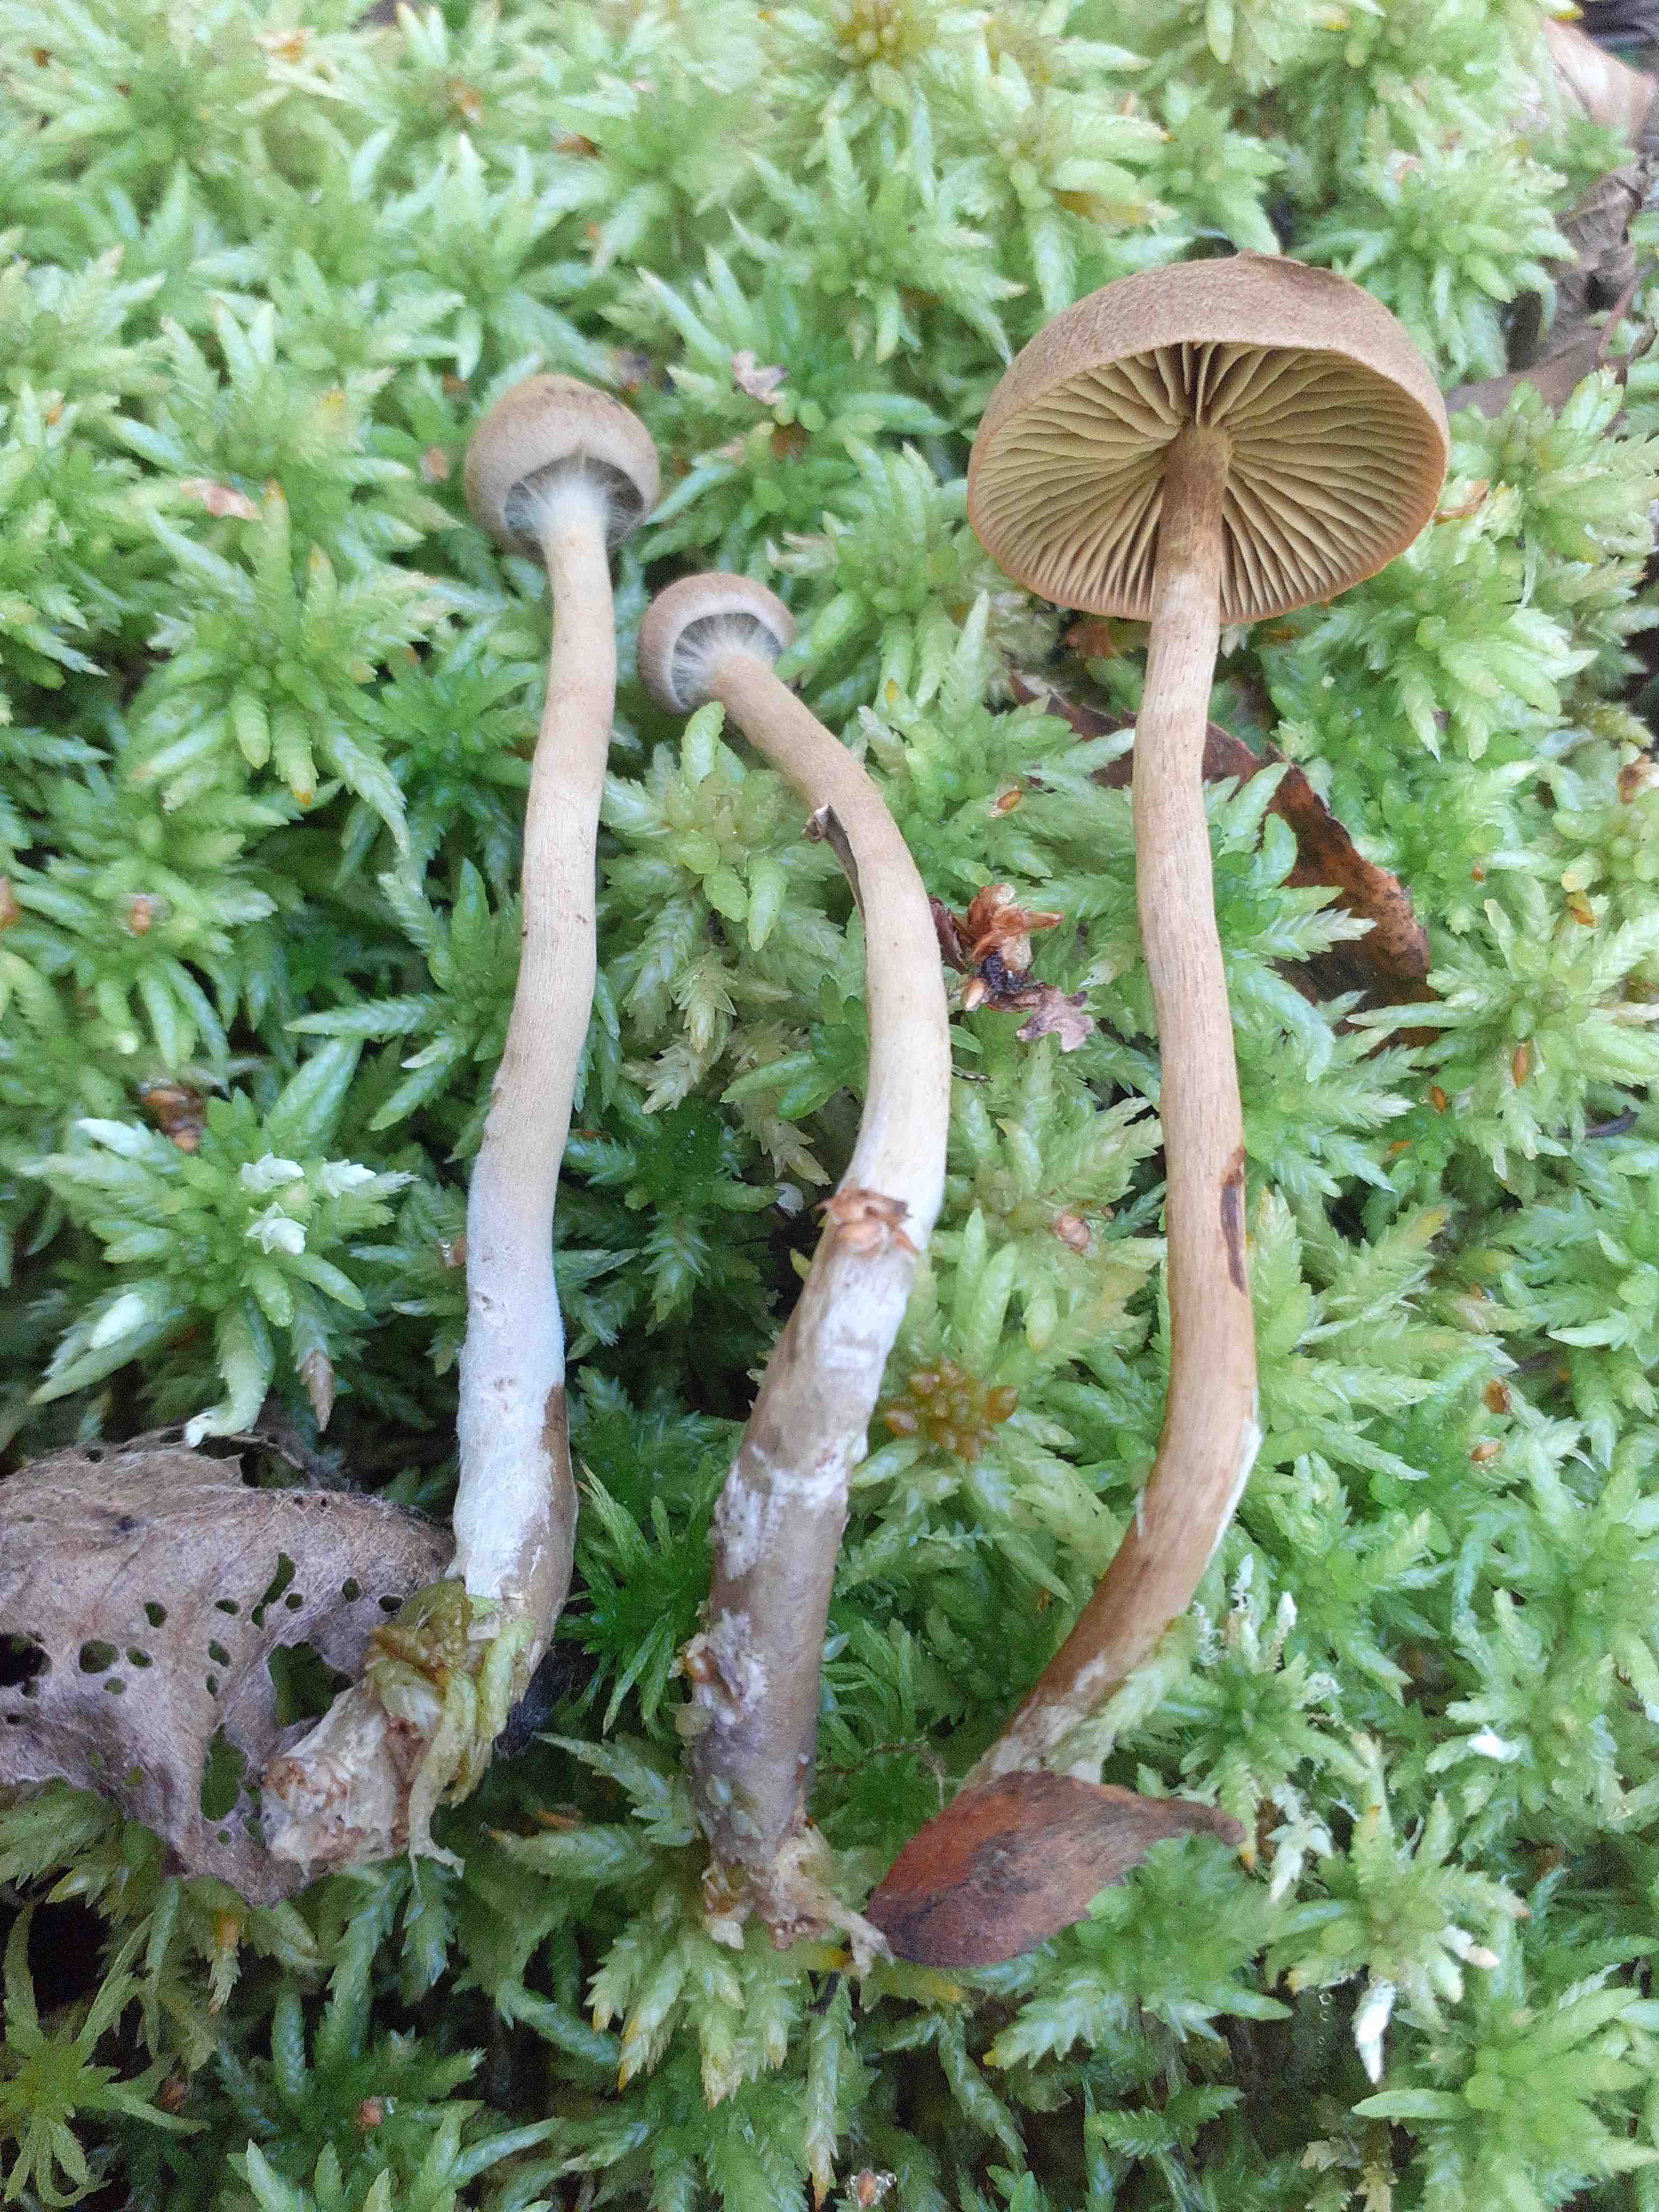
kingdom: Fungi
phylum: Basidiomycota
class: Agaricomycetes
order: Agaricales
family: Cortinariaceae
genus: Cortinarius
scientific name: Cortinarius subfusipes
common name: højmose-slørhat
